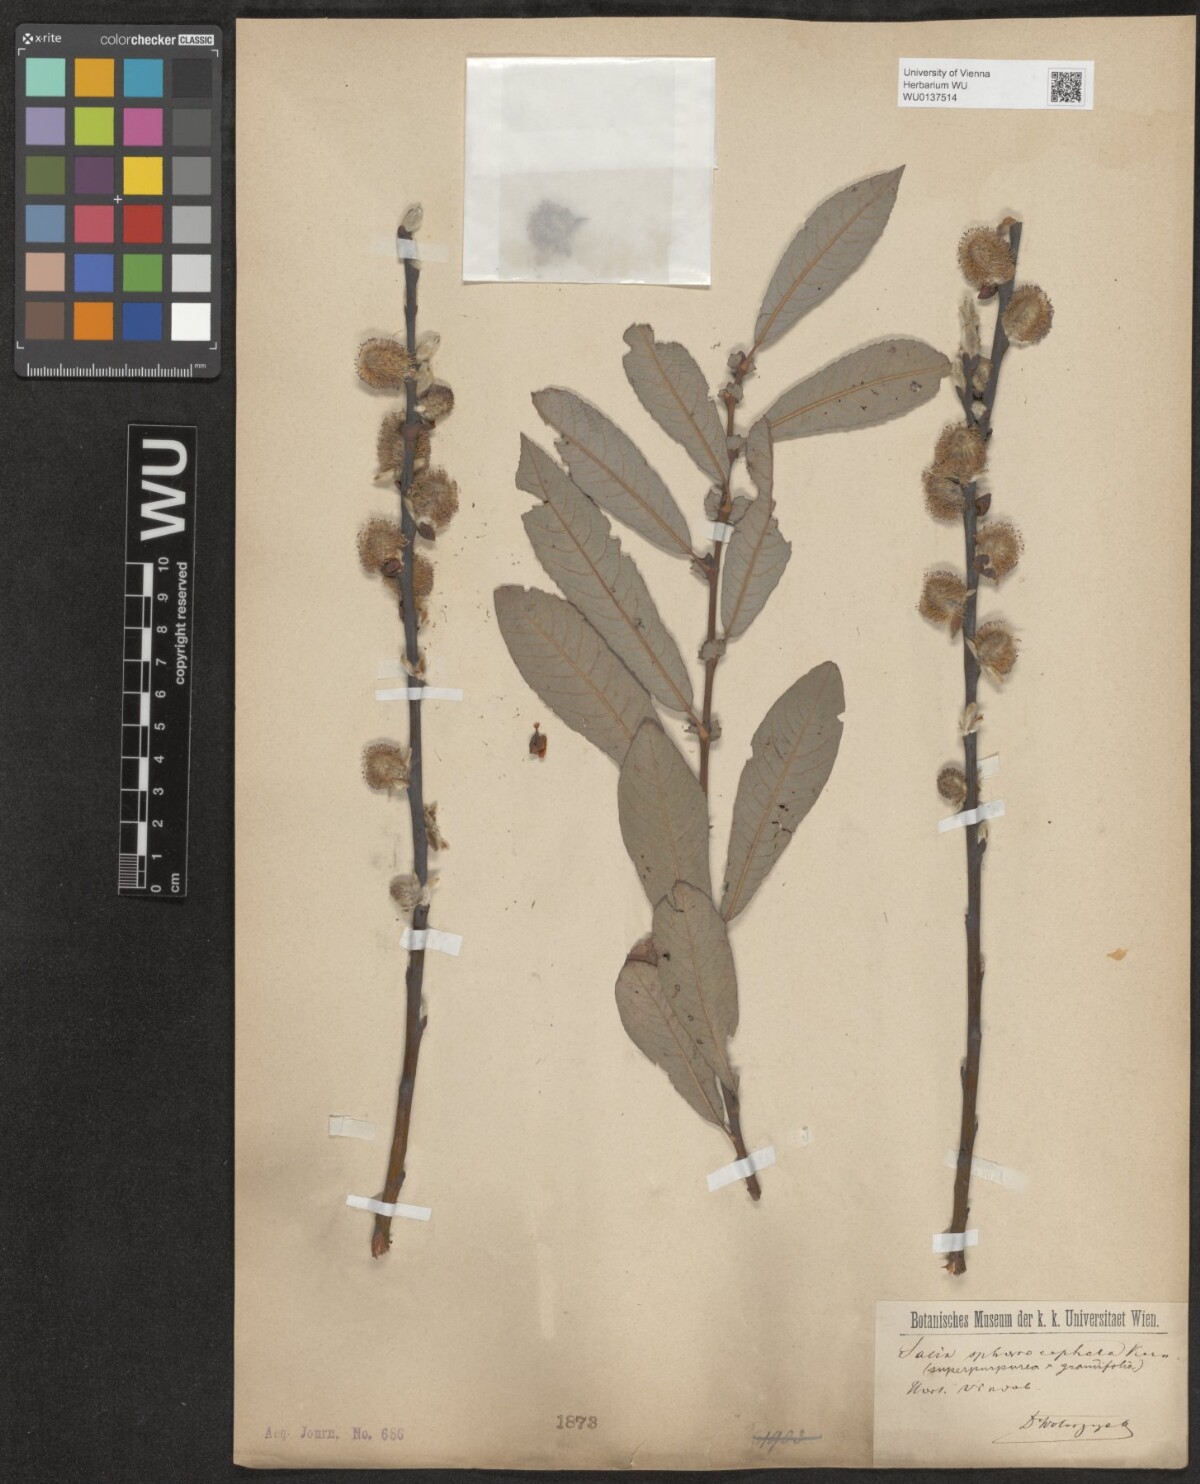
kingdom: Plantae
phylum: Tracheophyta
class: Magnoliopsida
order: Malpighiales
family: Salicaceae
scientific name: Salicaceae
